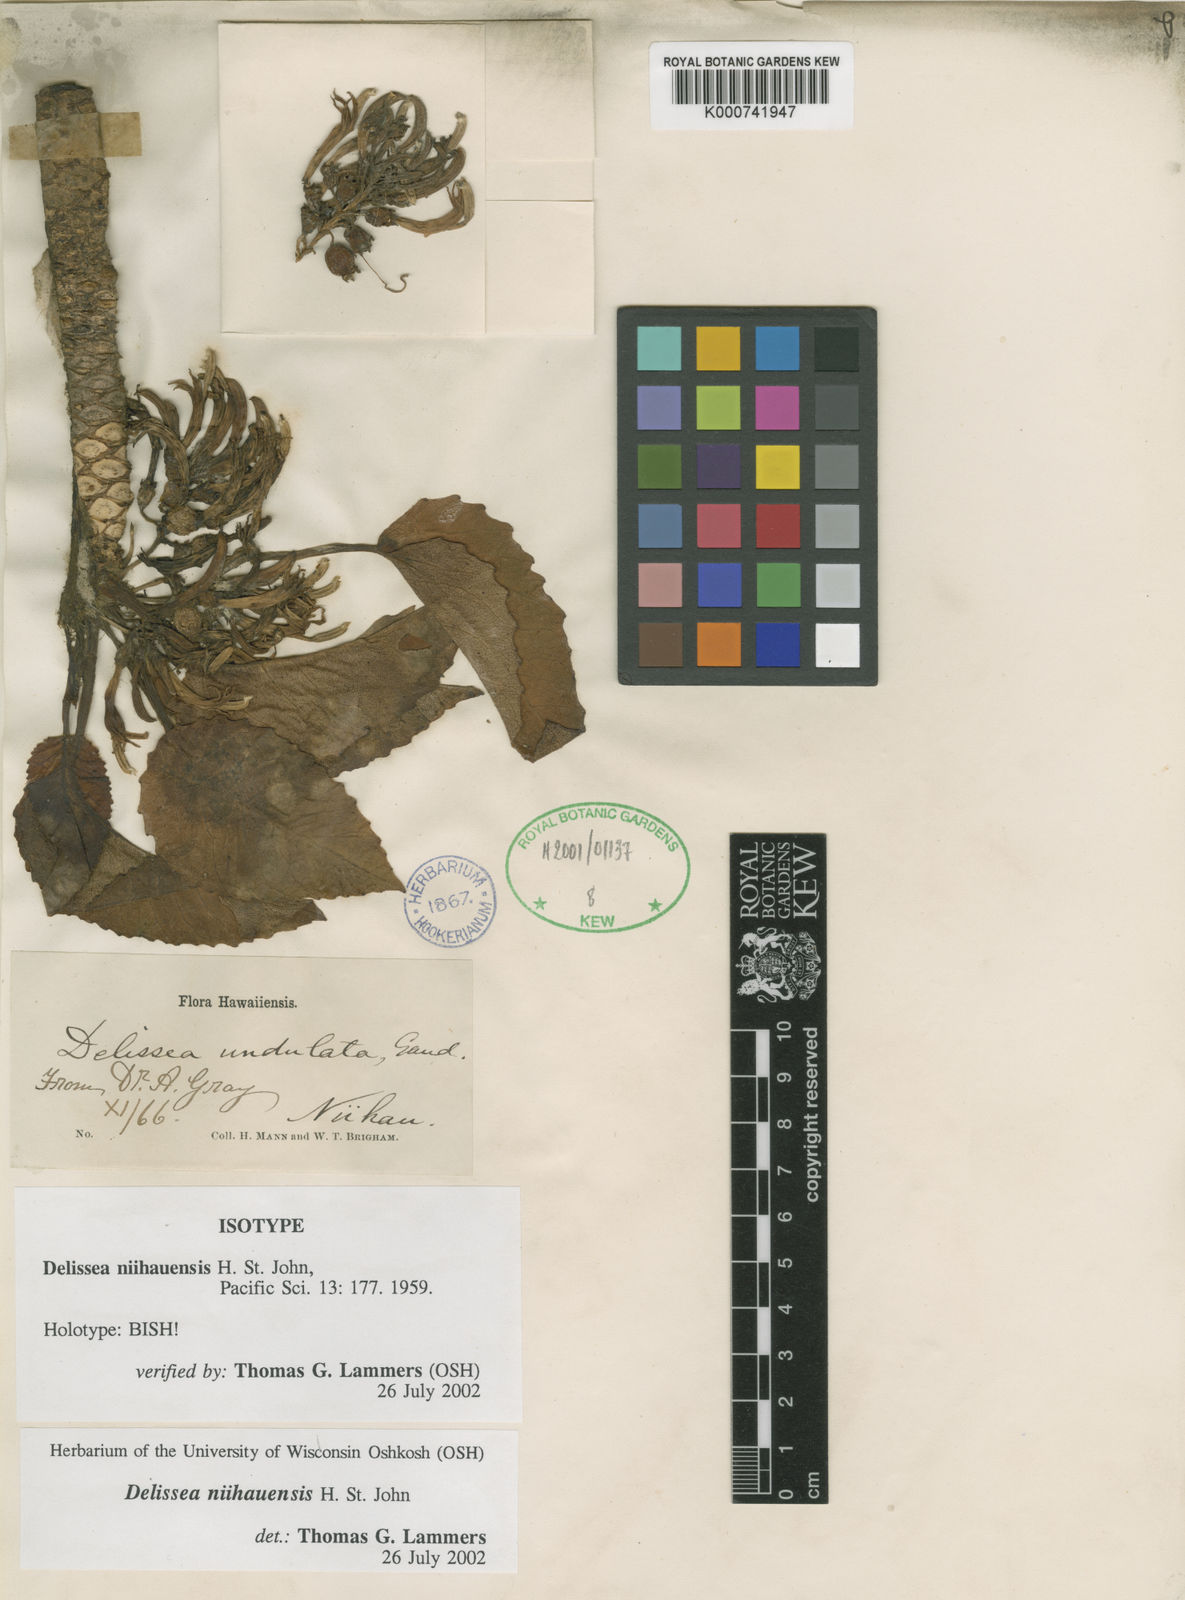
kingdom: Plantae
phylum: Tracheophyta
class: Magnoliopsida
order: Asterales
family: Campanulaceae
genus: Delissea
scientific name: Delissea niihauensis
